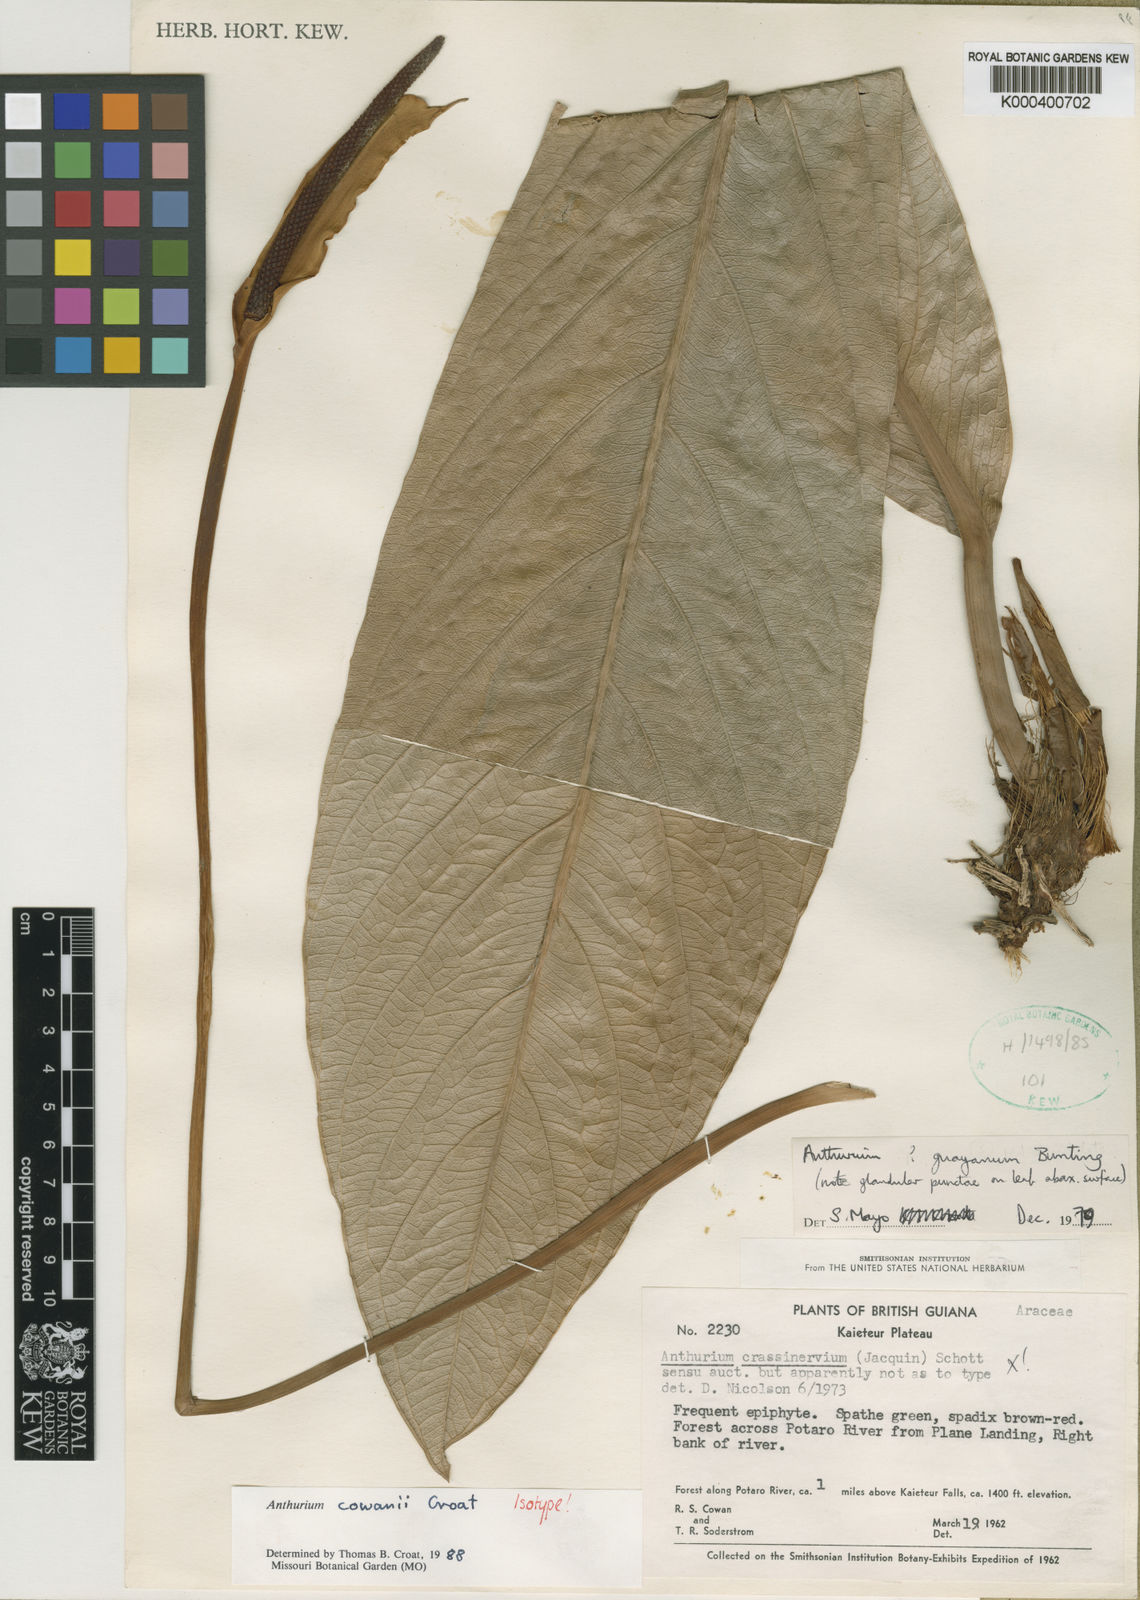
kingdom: Plantae
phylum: Tracheophyta
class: Liliopsida
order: Alismatales
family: Araceae
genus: Anthurium
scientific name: Anthurium cowanii
